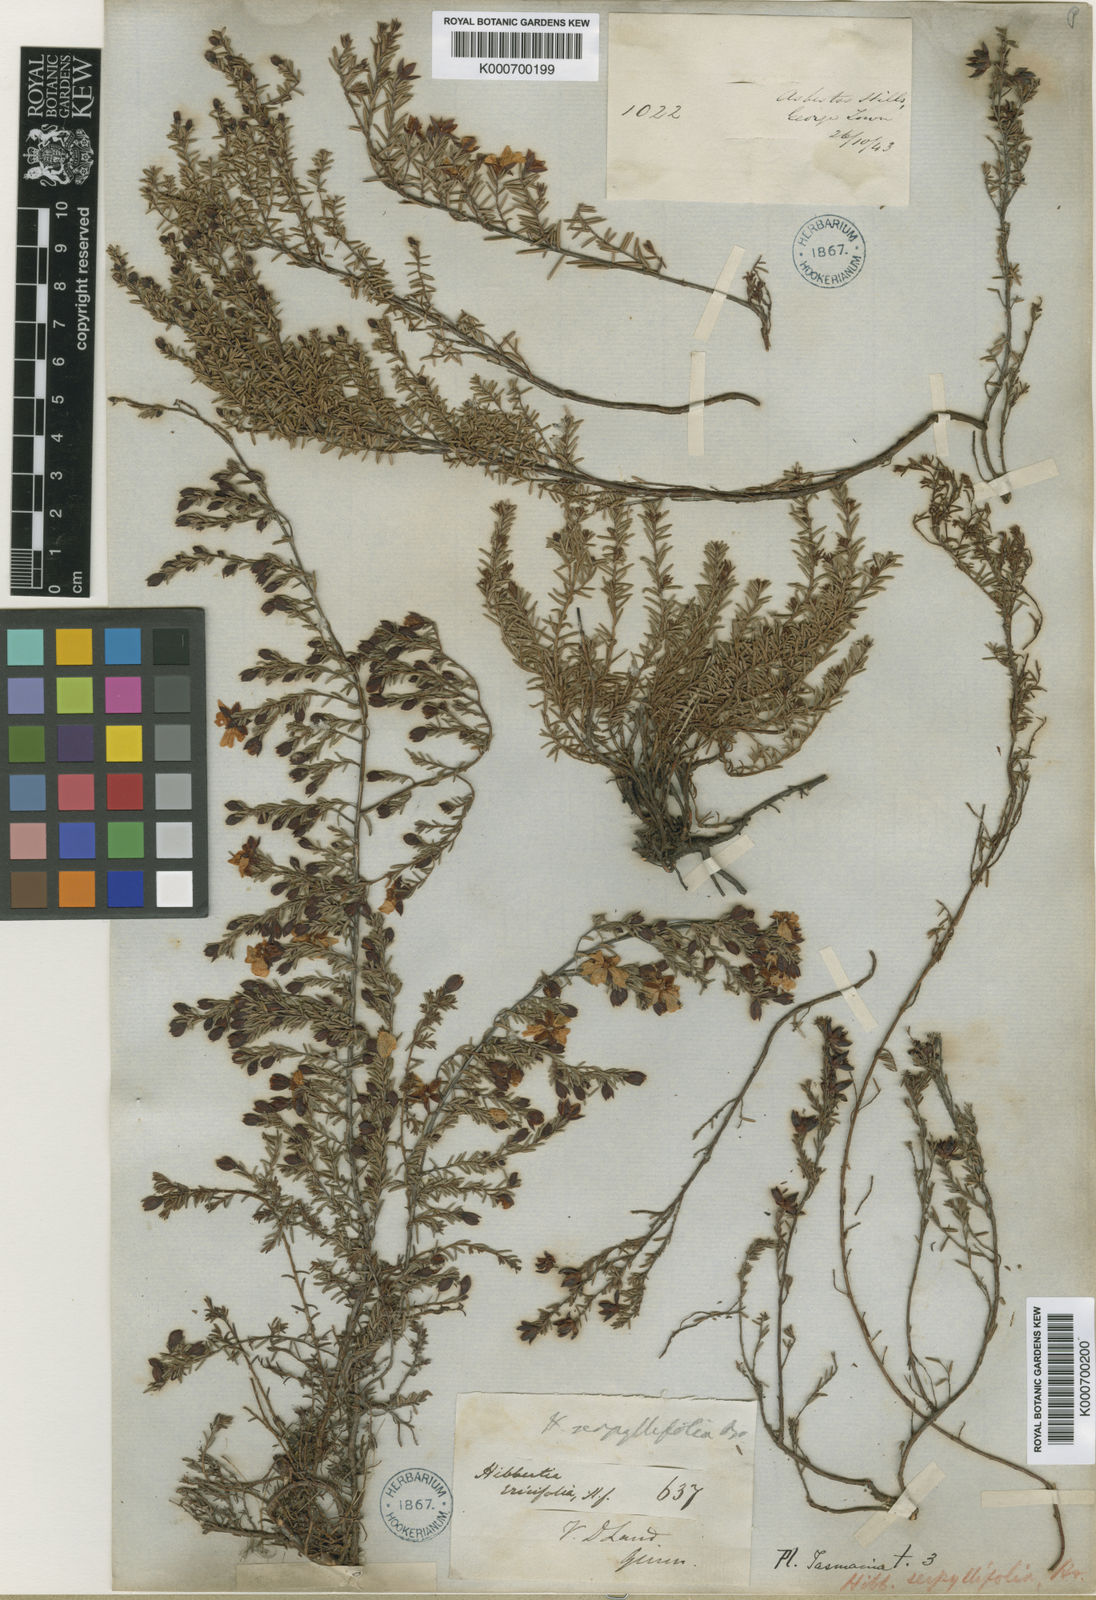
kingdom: Plantae
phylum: Tracheophyta
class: Magnoliopsida
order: Dilleniales
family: Dilleniaceae
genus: Hibbertia
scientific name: Hibbertia serpyllifolia
